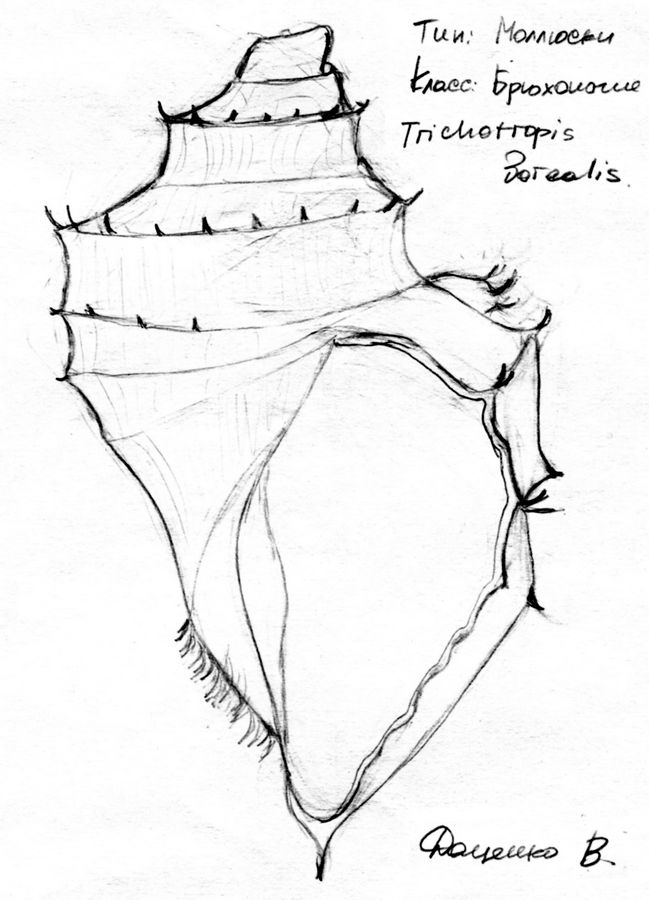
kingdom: Animalia
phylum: Mollusca
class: Gastropoda
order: Littorinimorpha
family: Capulidae
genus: Ariadnaria
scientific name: Ariadnaria borealis
